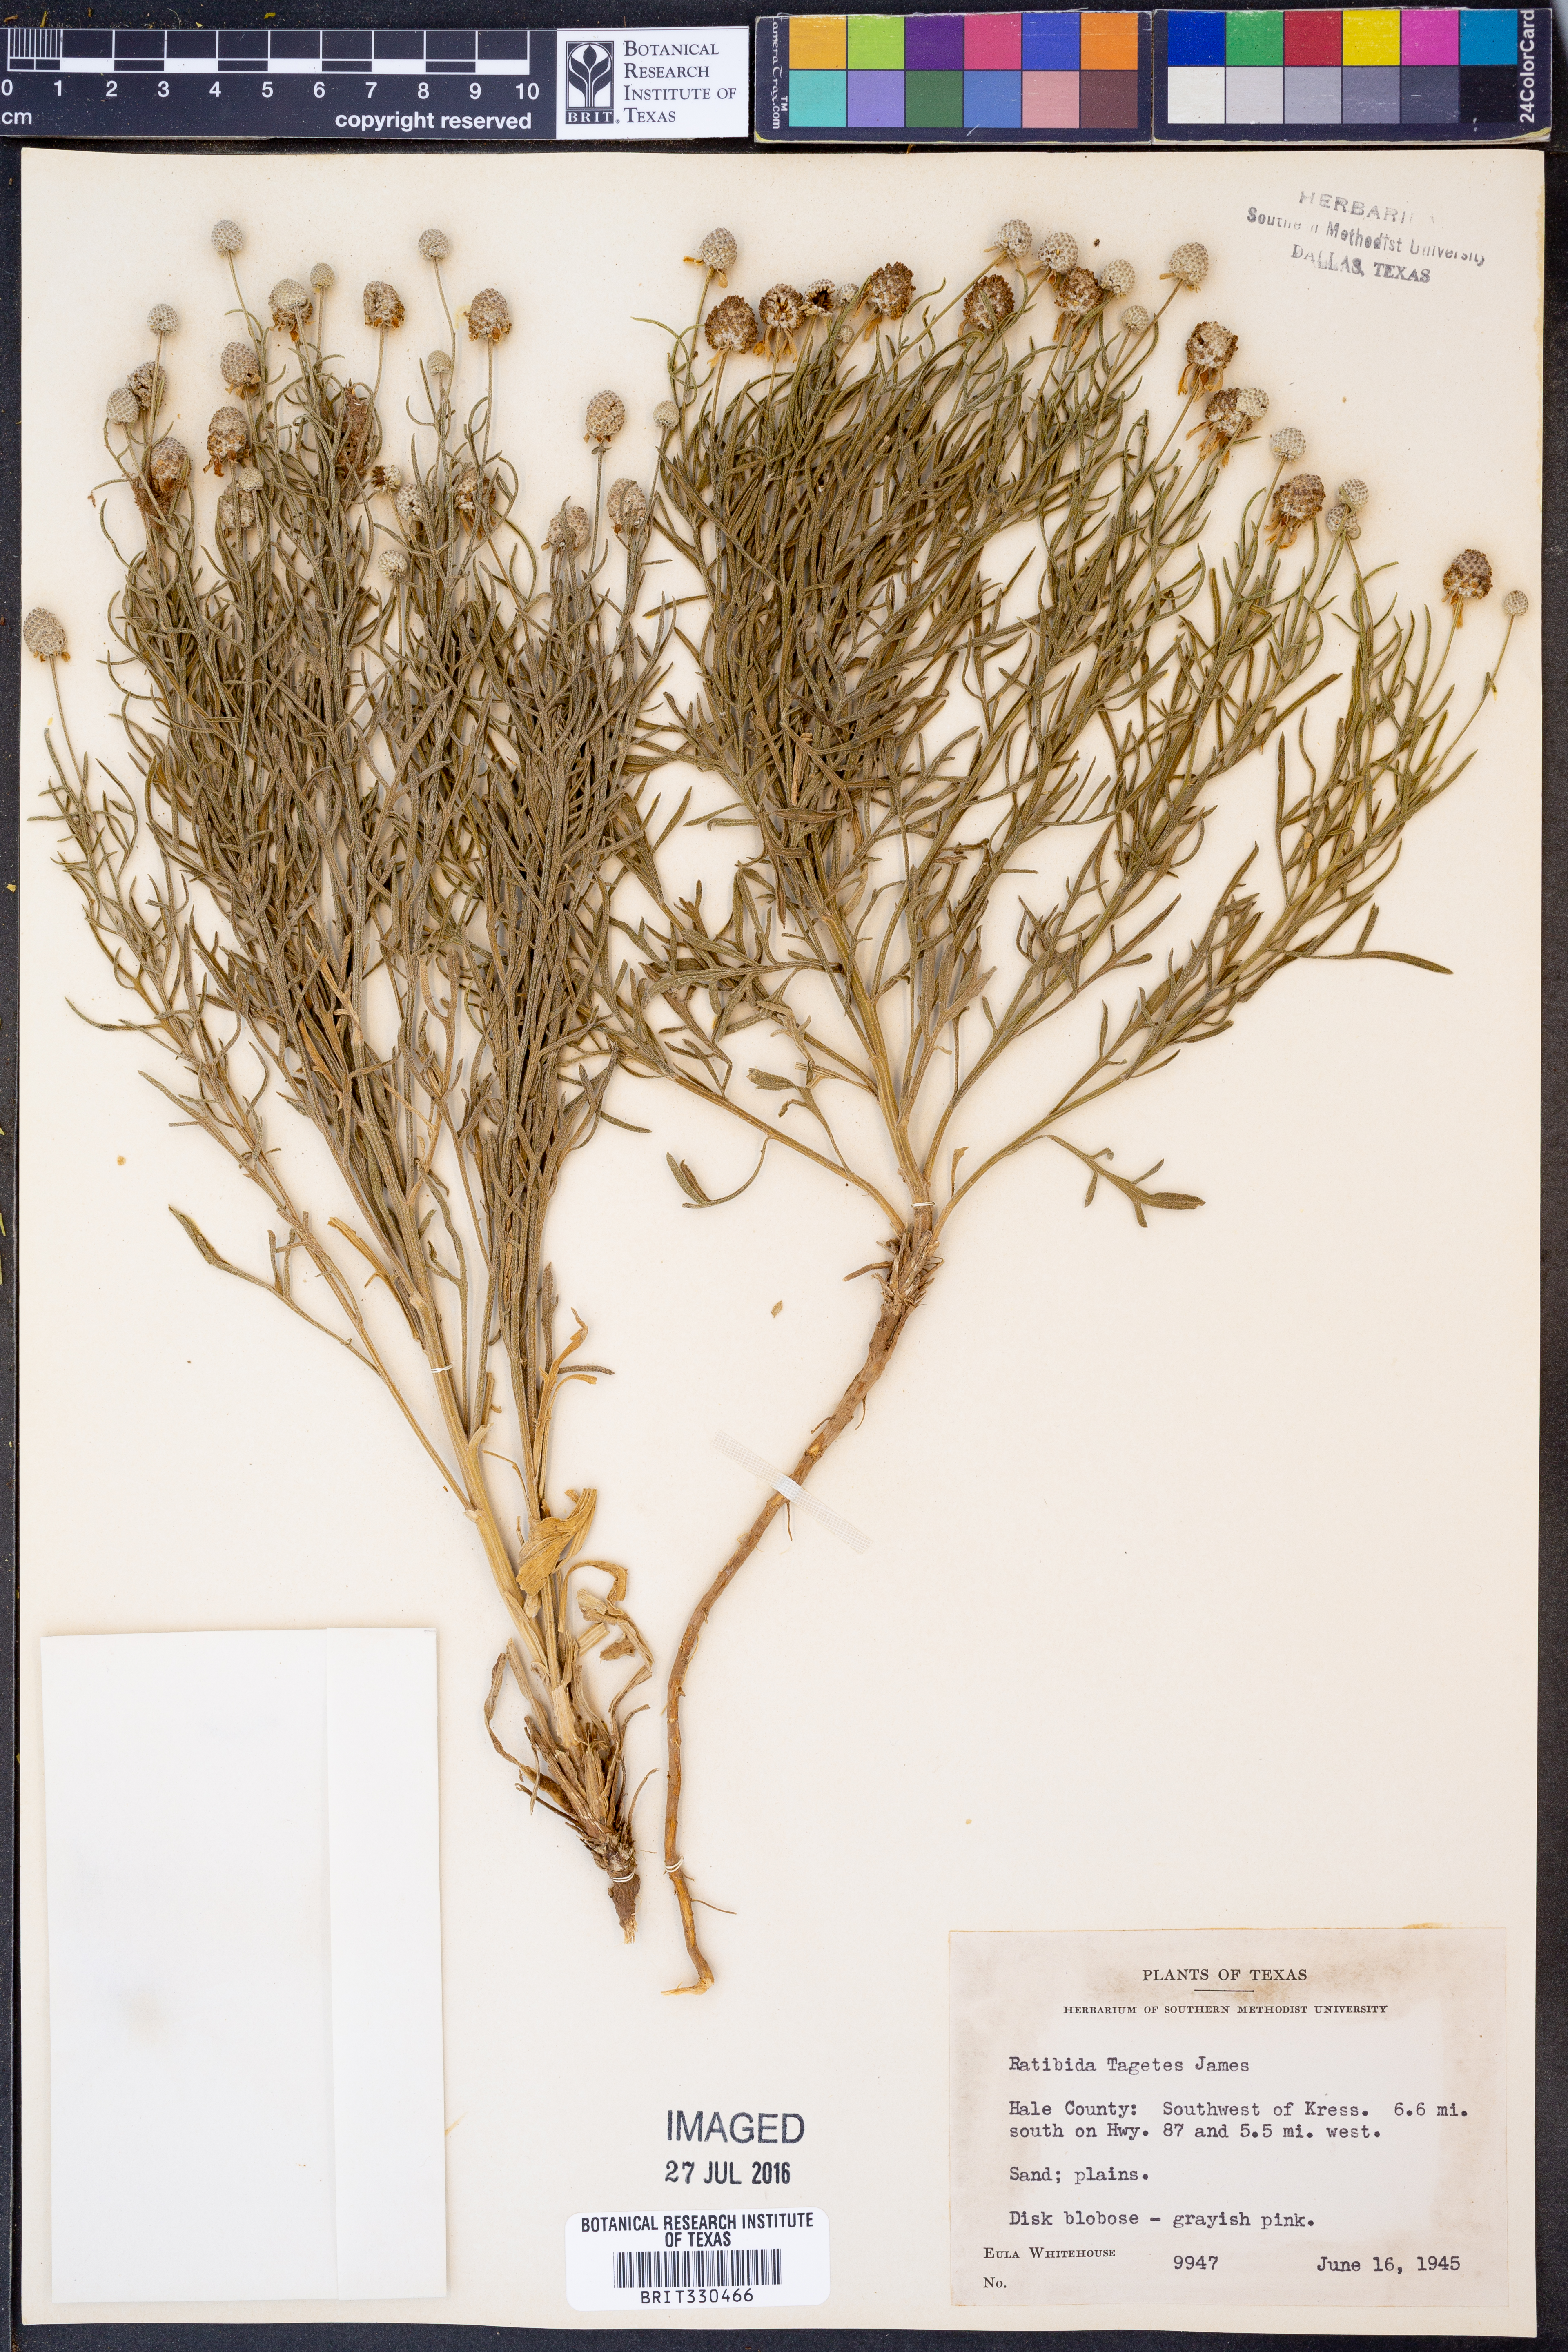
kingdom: Plantae
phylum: Tracheophyta
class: Magnoliopsida
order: Asterales
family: Asteraceae
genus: Ratibida
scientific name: Ratibida tagetes
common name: Green mexican-hat
